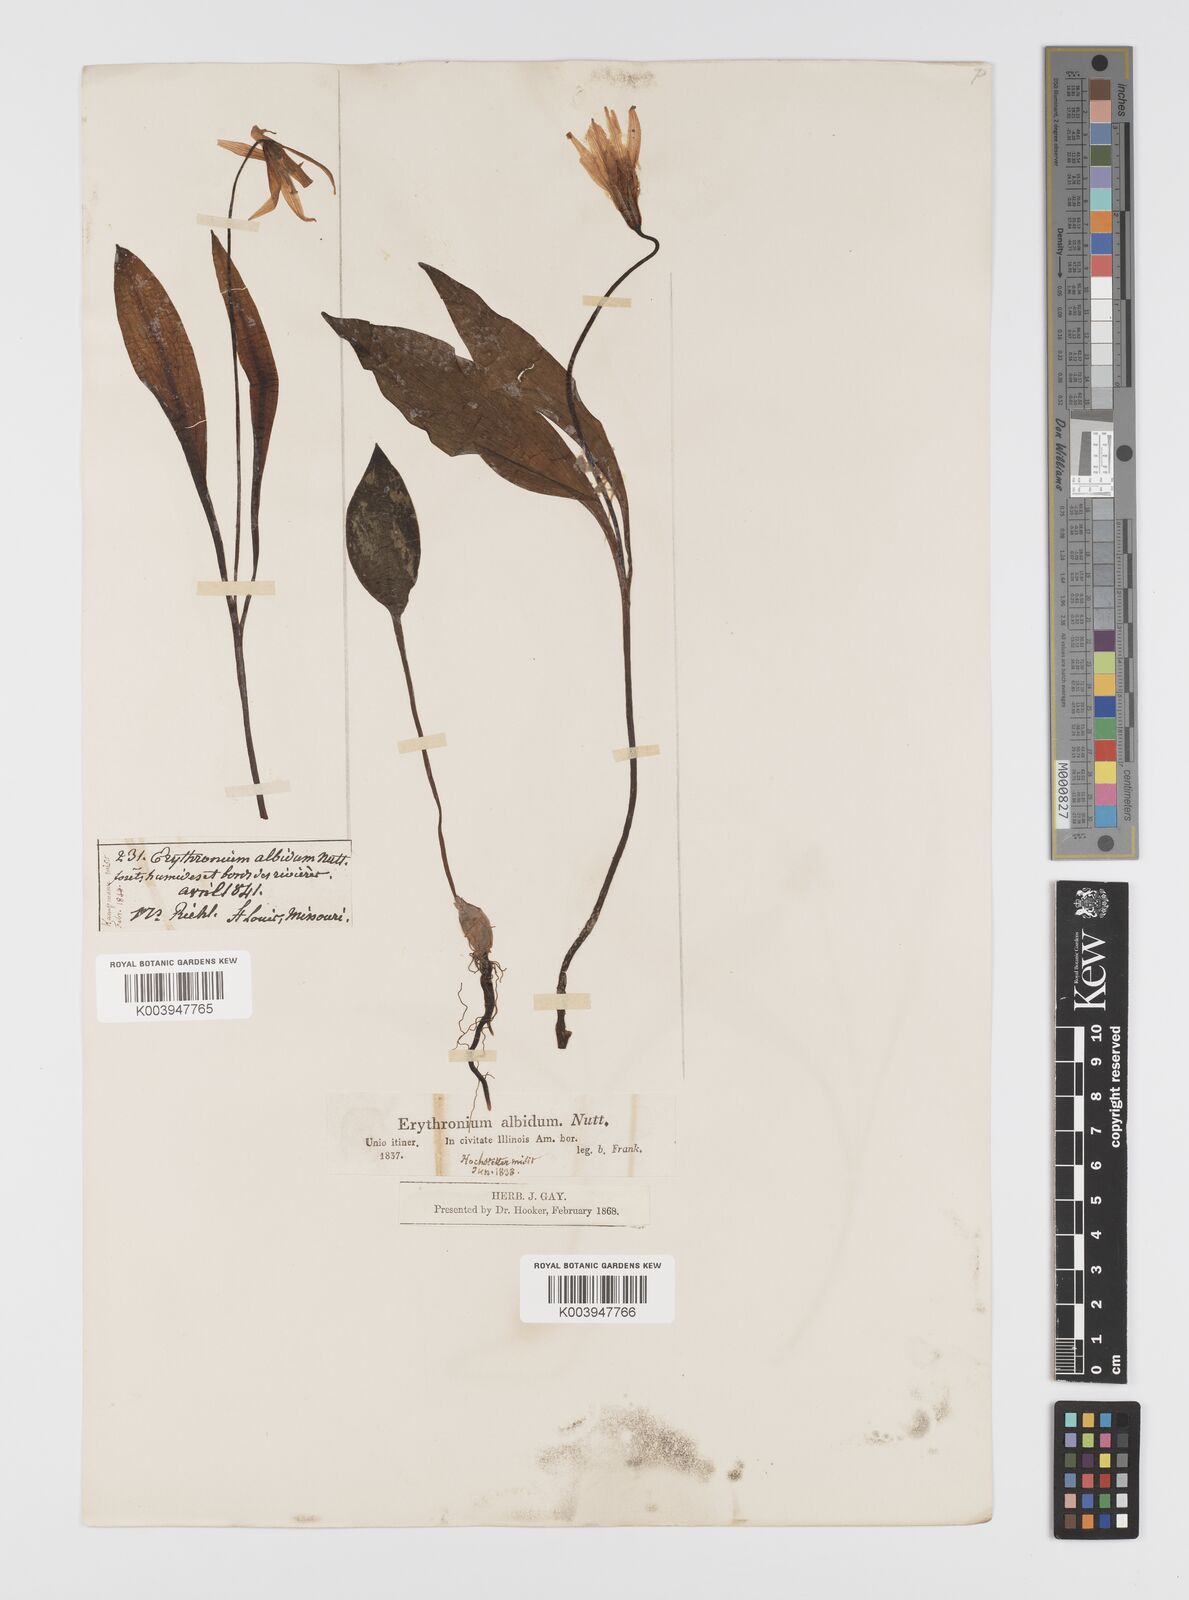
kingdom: Plantae
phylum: Tracheophyta
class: Liliopsida
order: Liliales
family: Liliaceae
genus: Erythronium
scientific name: Erythronium albidum
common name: White trout-lily
